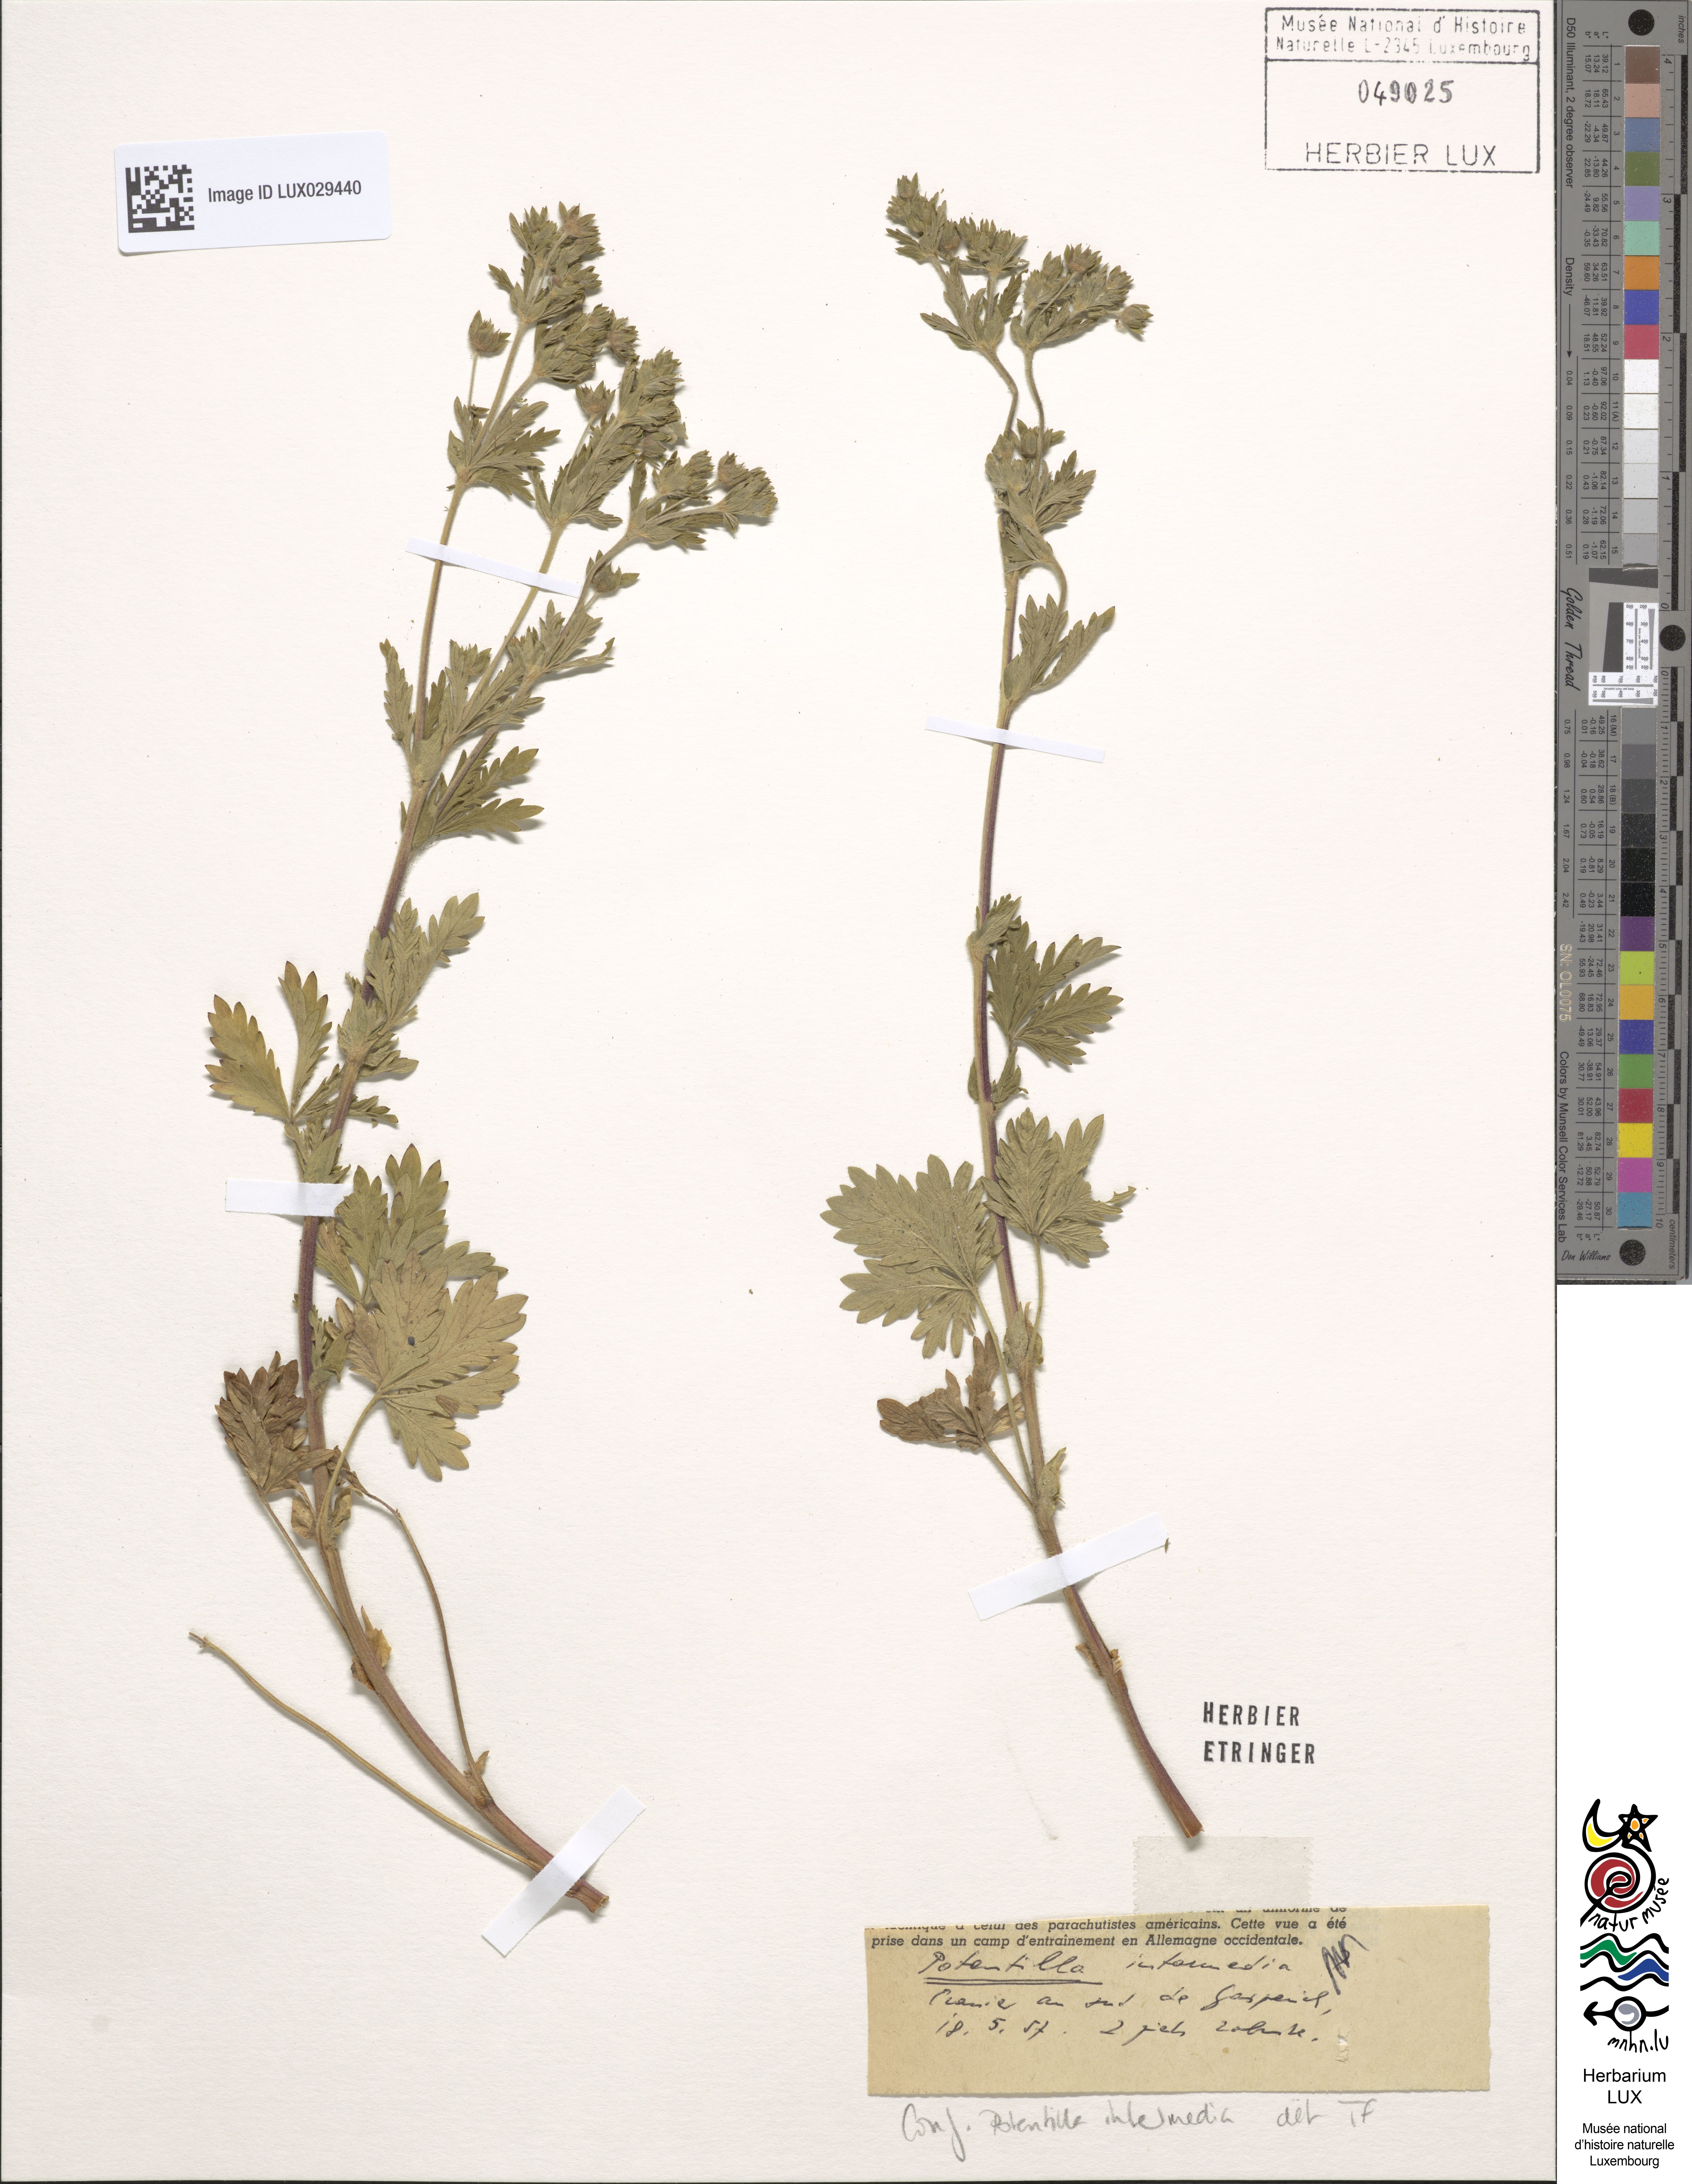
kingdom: Plantae
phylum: Tracheophyta
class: Magnoliopsida
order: Rosales
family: Rosaceae
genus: Potentilla
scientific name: Potentilla intermedia
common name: Downy cinquefoil
